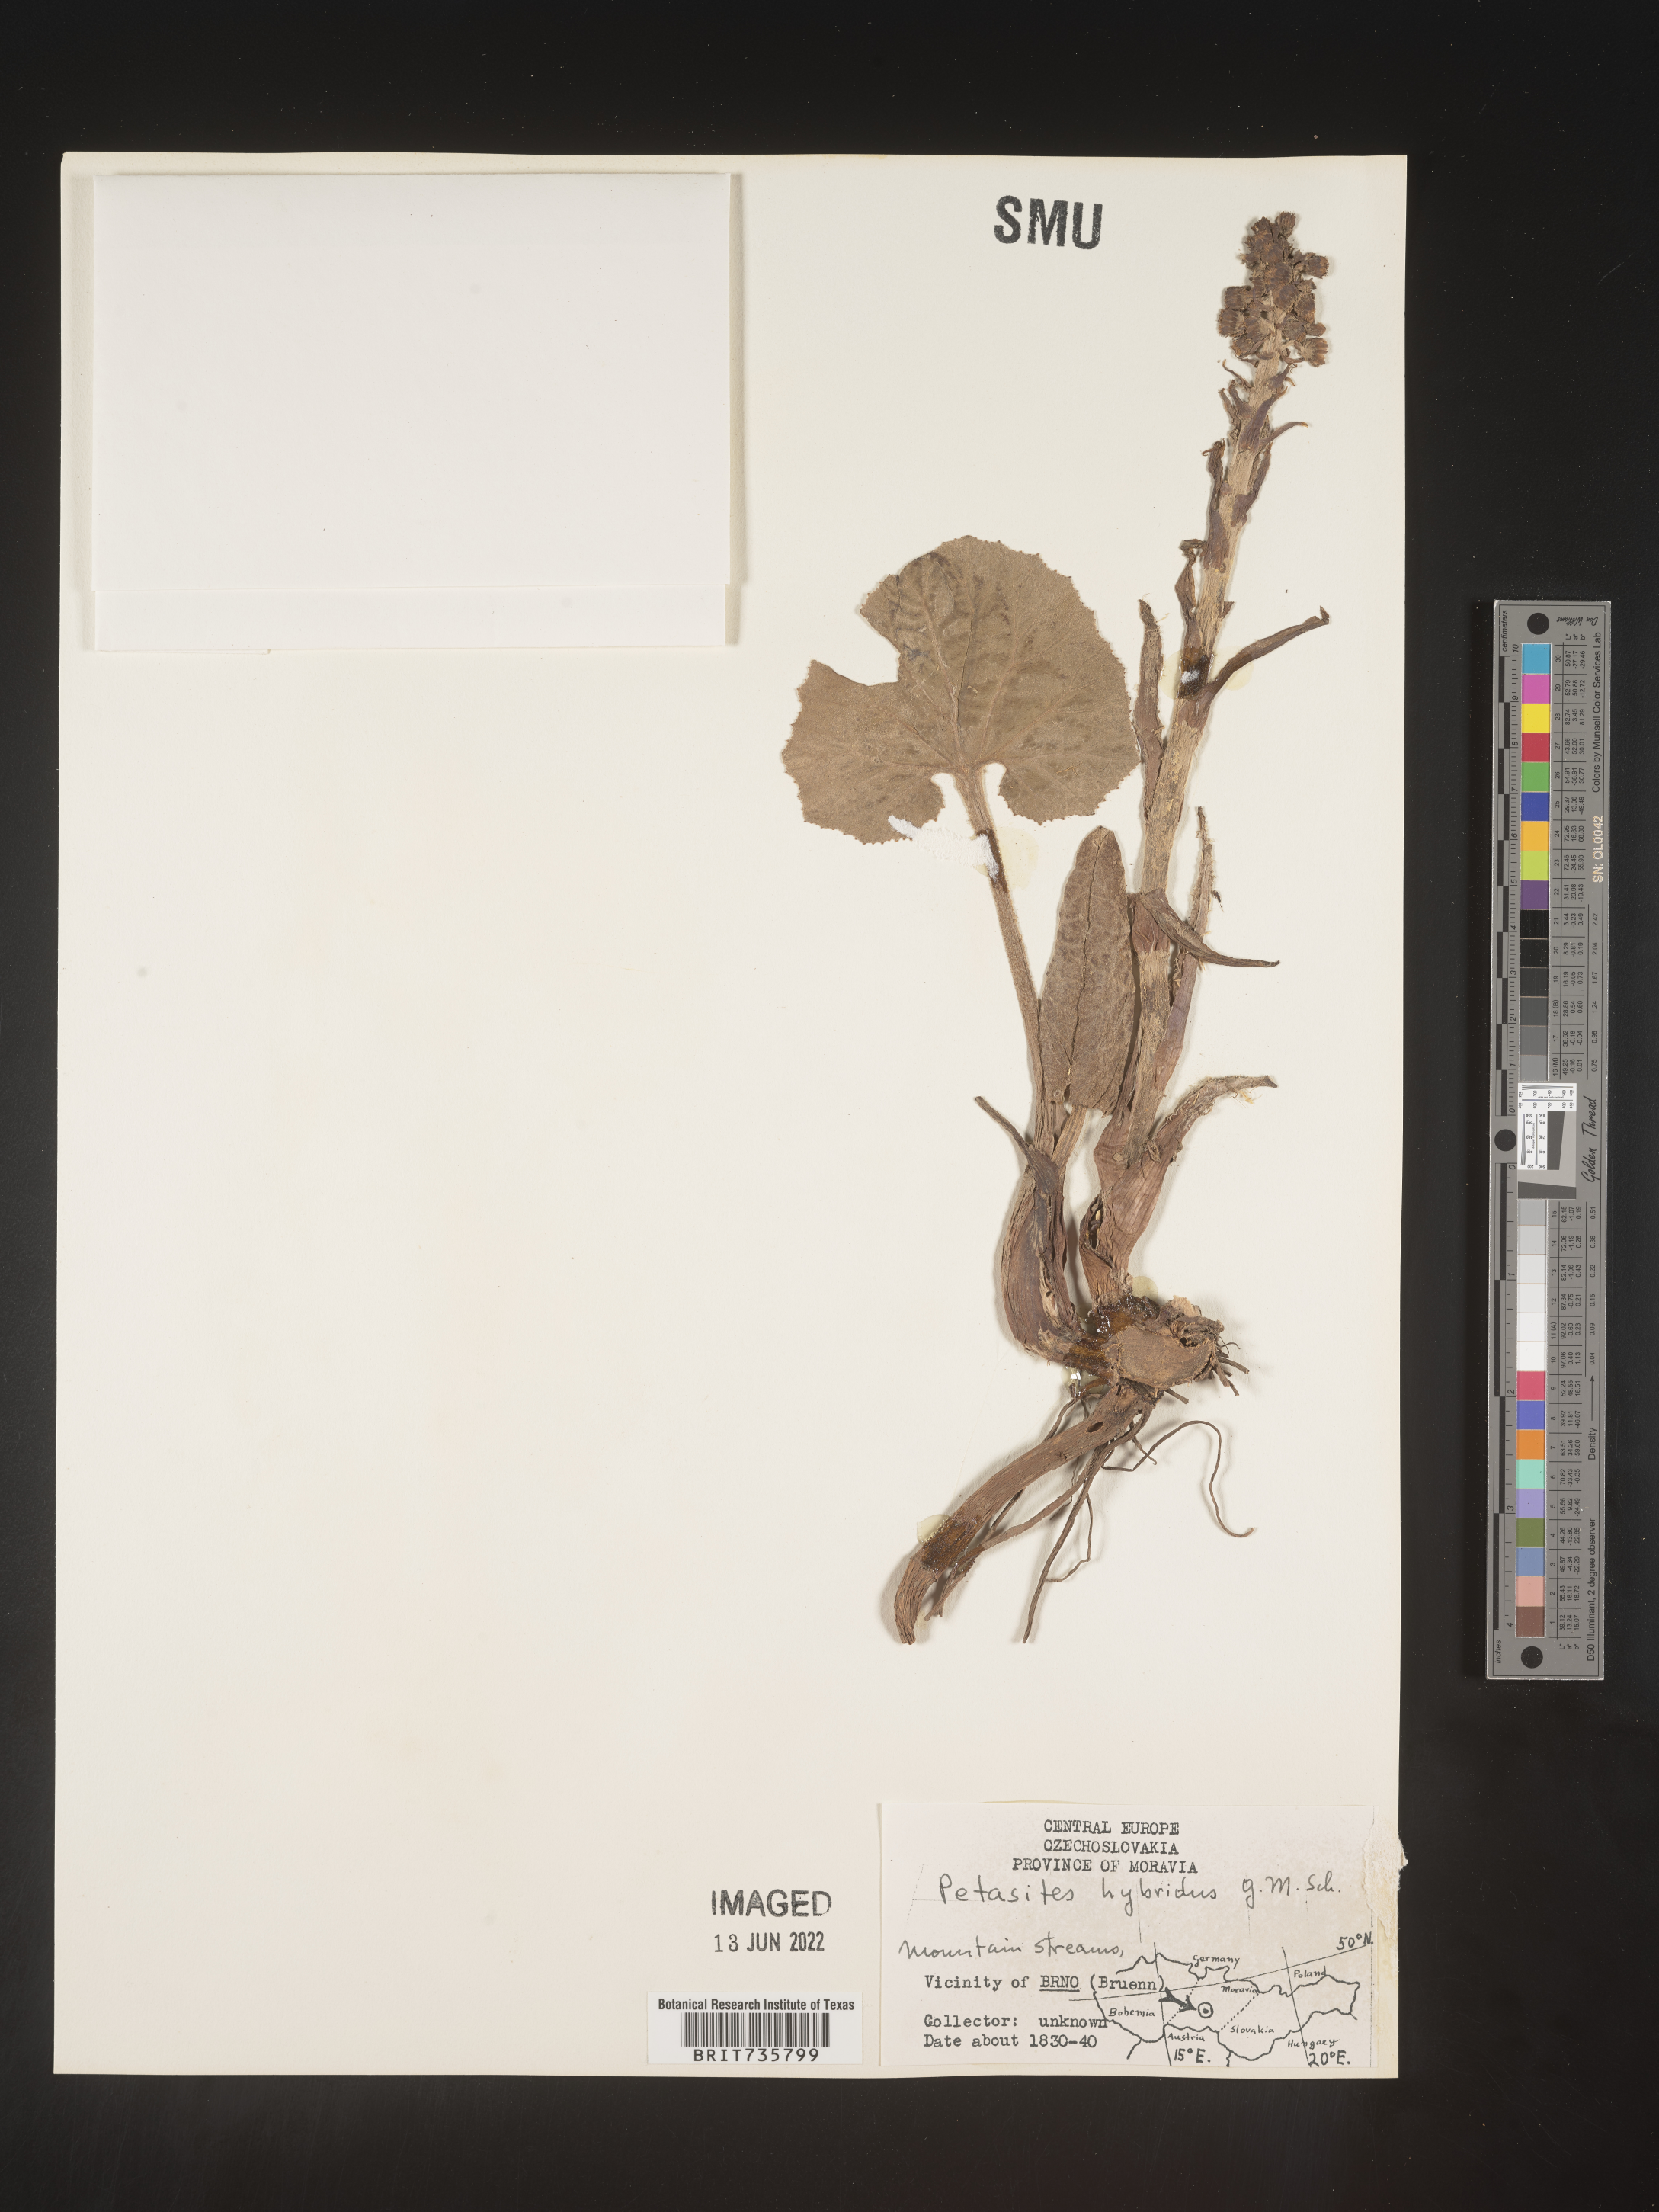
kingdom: Plantae
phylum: Tracheophyta
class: Magnoliopsida
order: Asterales
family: Asteraceae
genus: Petasites
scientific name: Petasites
